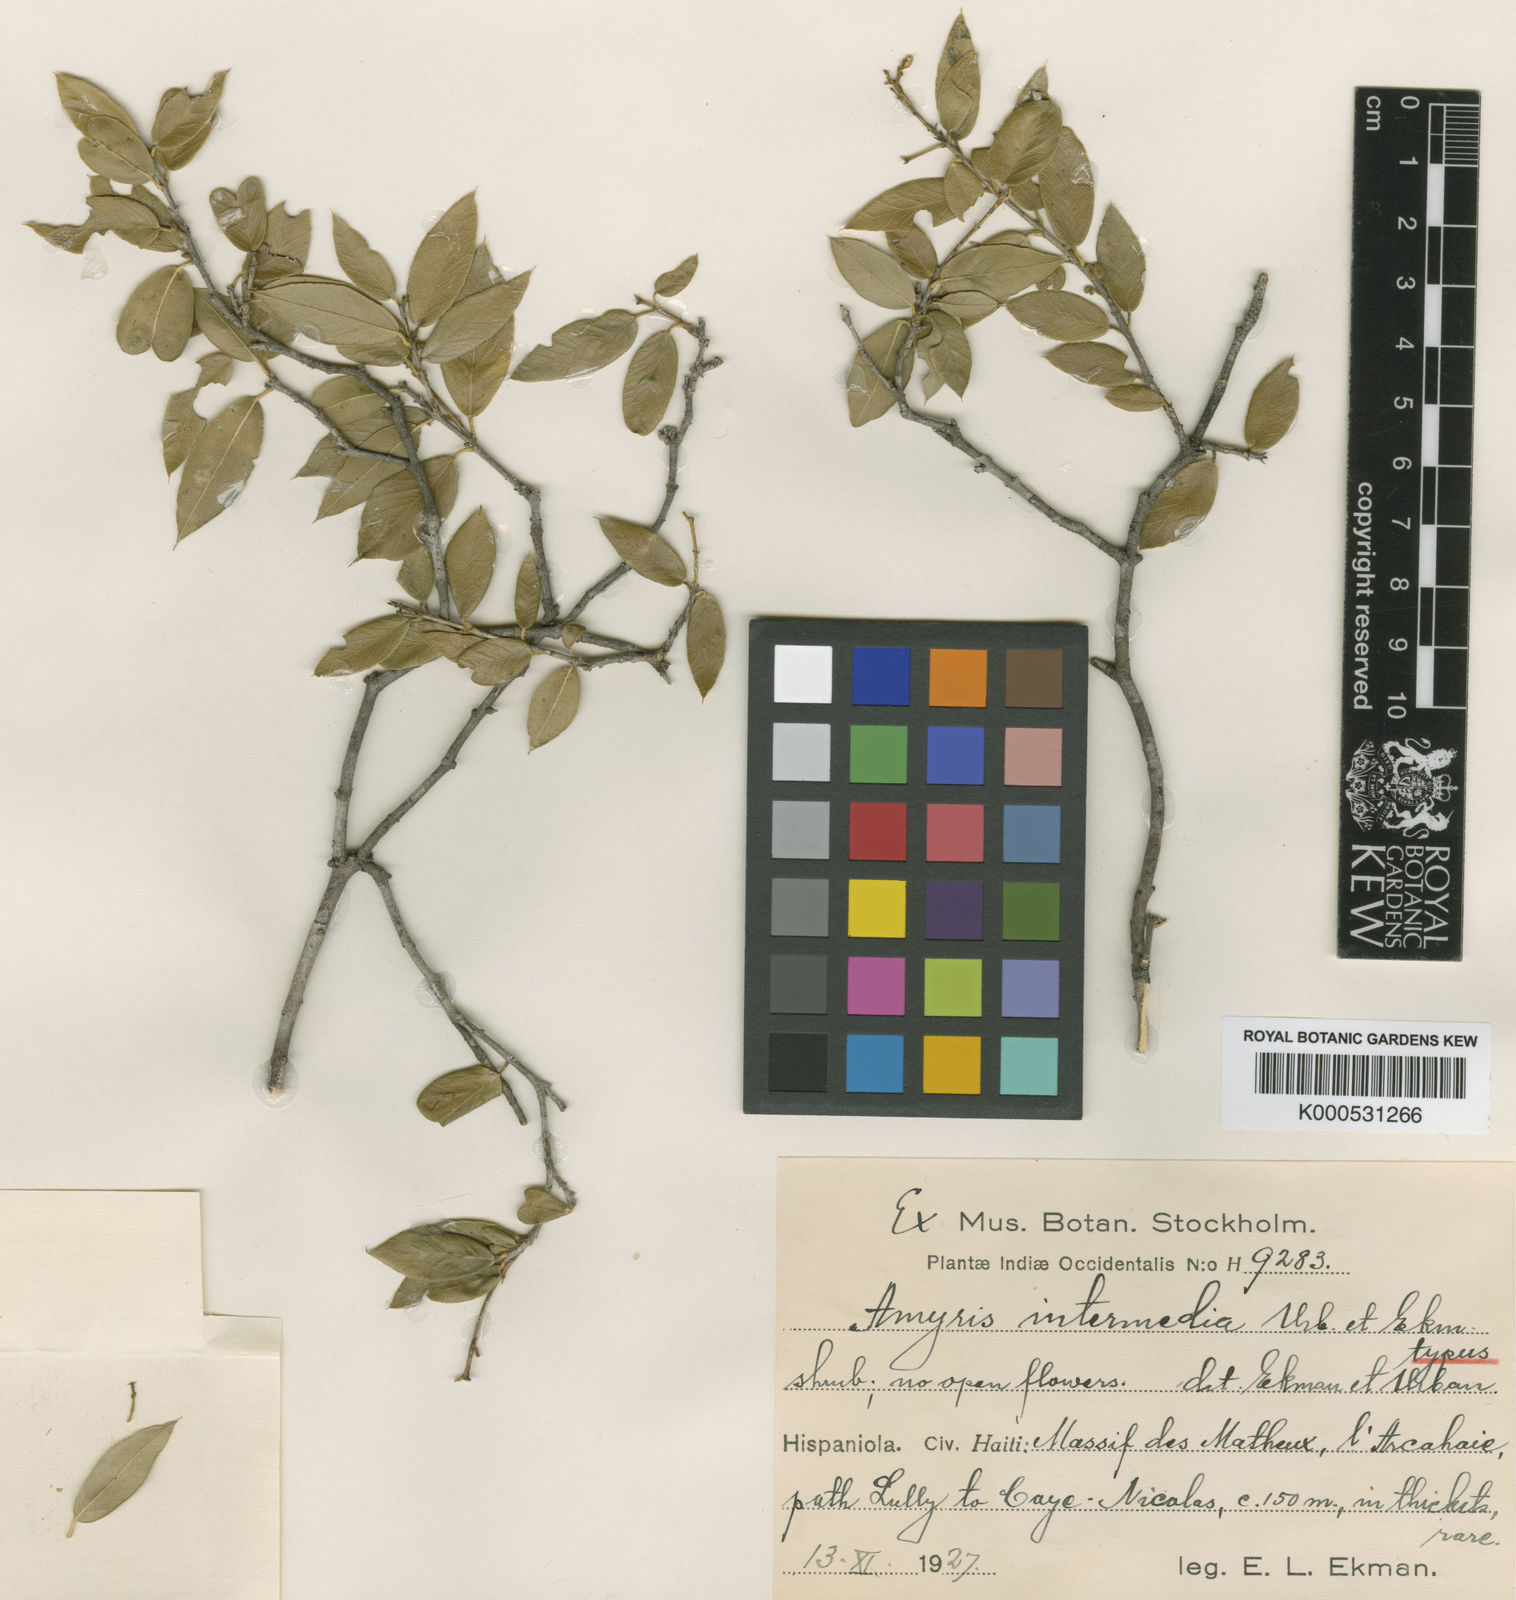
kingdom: Plantae
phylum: Tracheophyta
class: Magnoliopsida
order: Sapindales
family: Rutaceae
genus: Amyris
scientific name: Amyris intermedia
